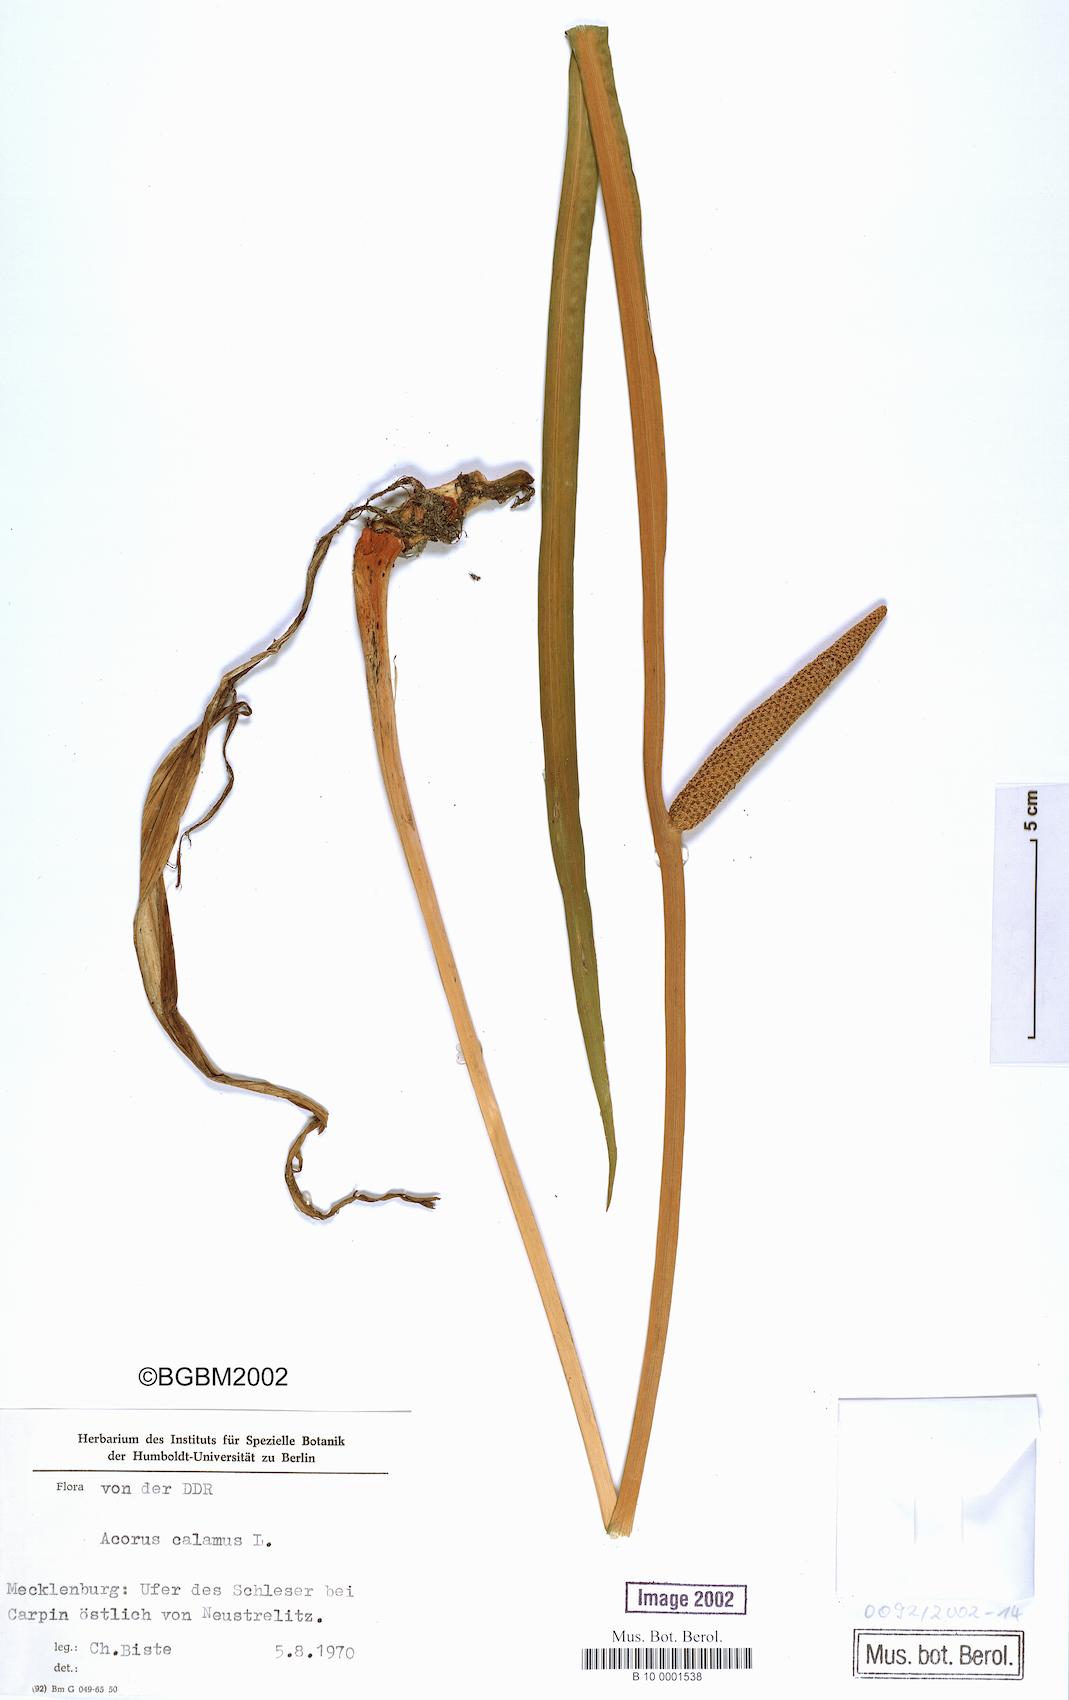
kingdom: Plantae
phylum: Tracheophyta
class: Liliopsida
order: Acorales
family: Acoraceae
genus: Acorus
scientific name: Acorus calamus
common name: Sweet-flag
